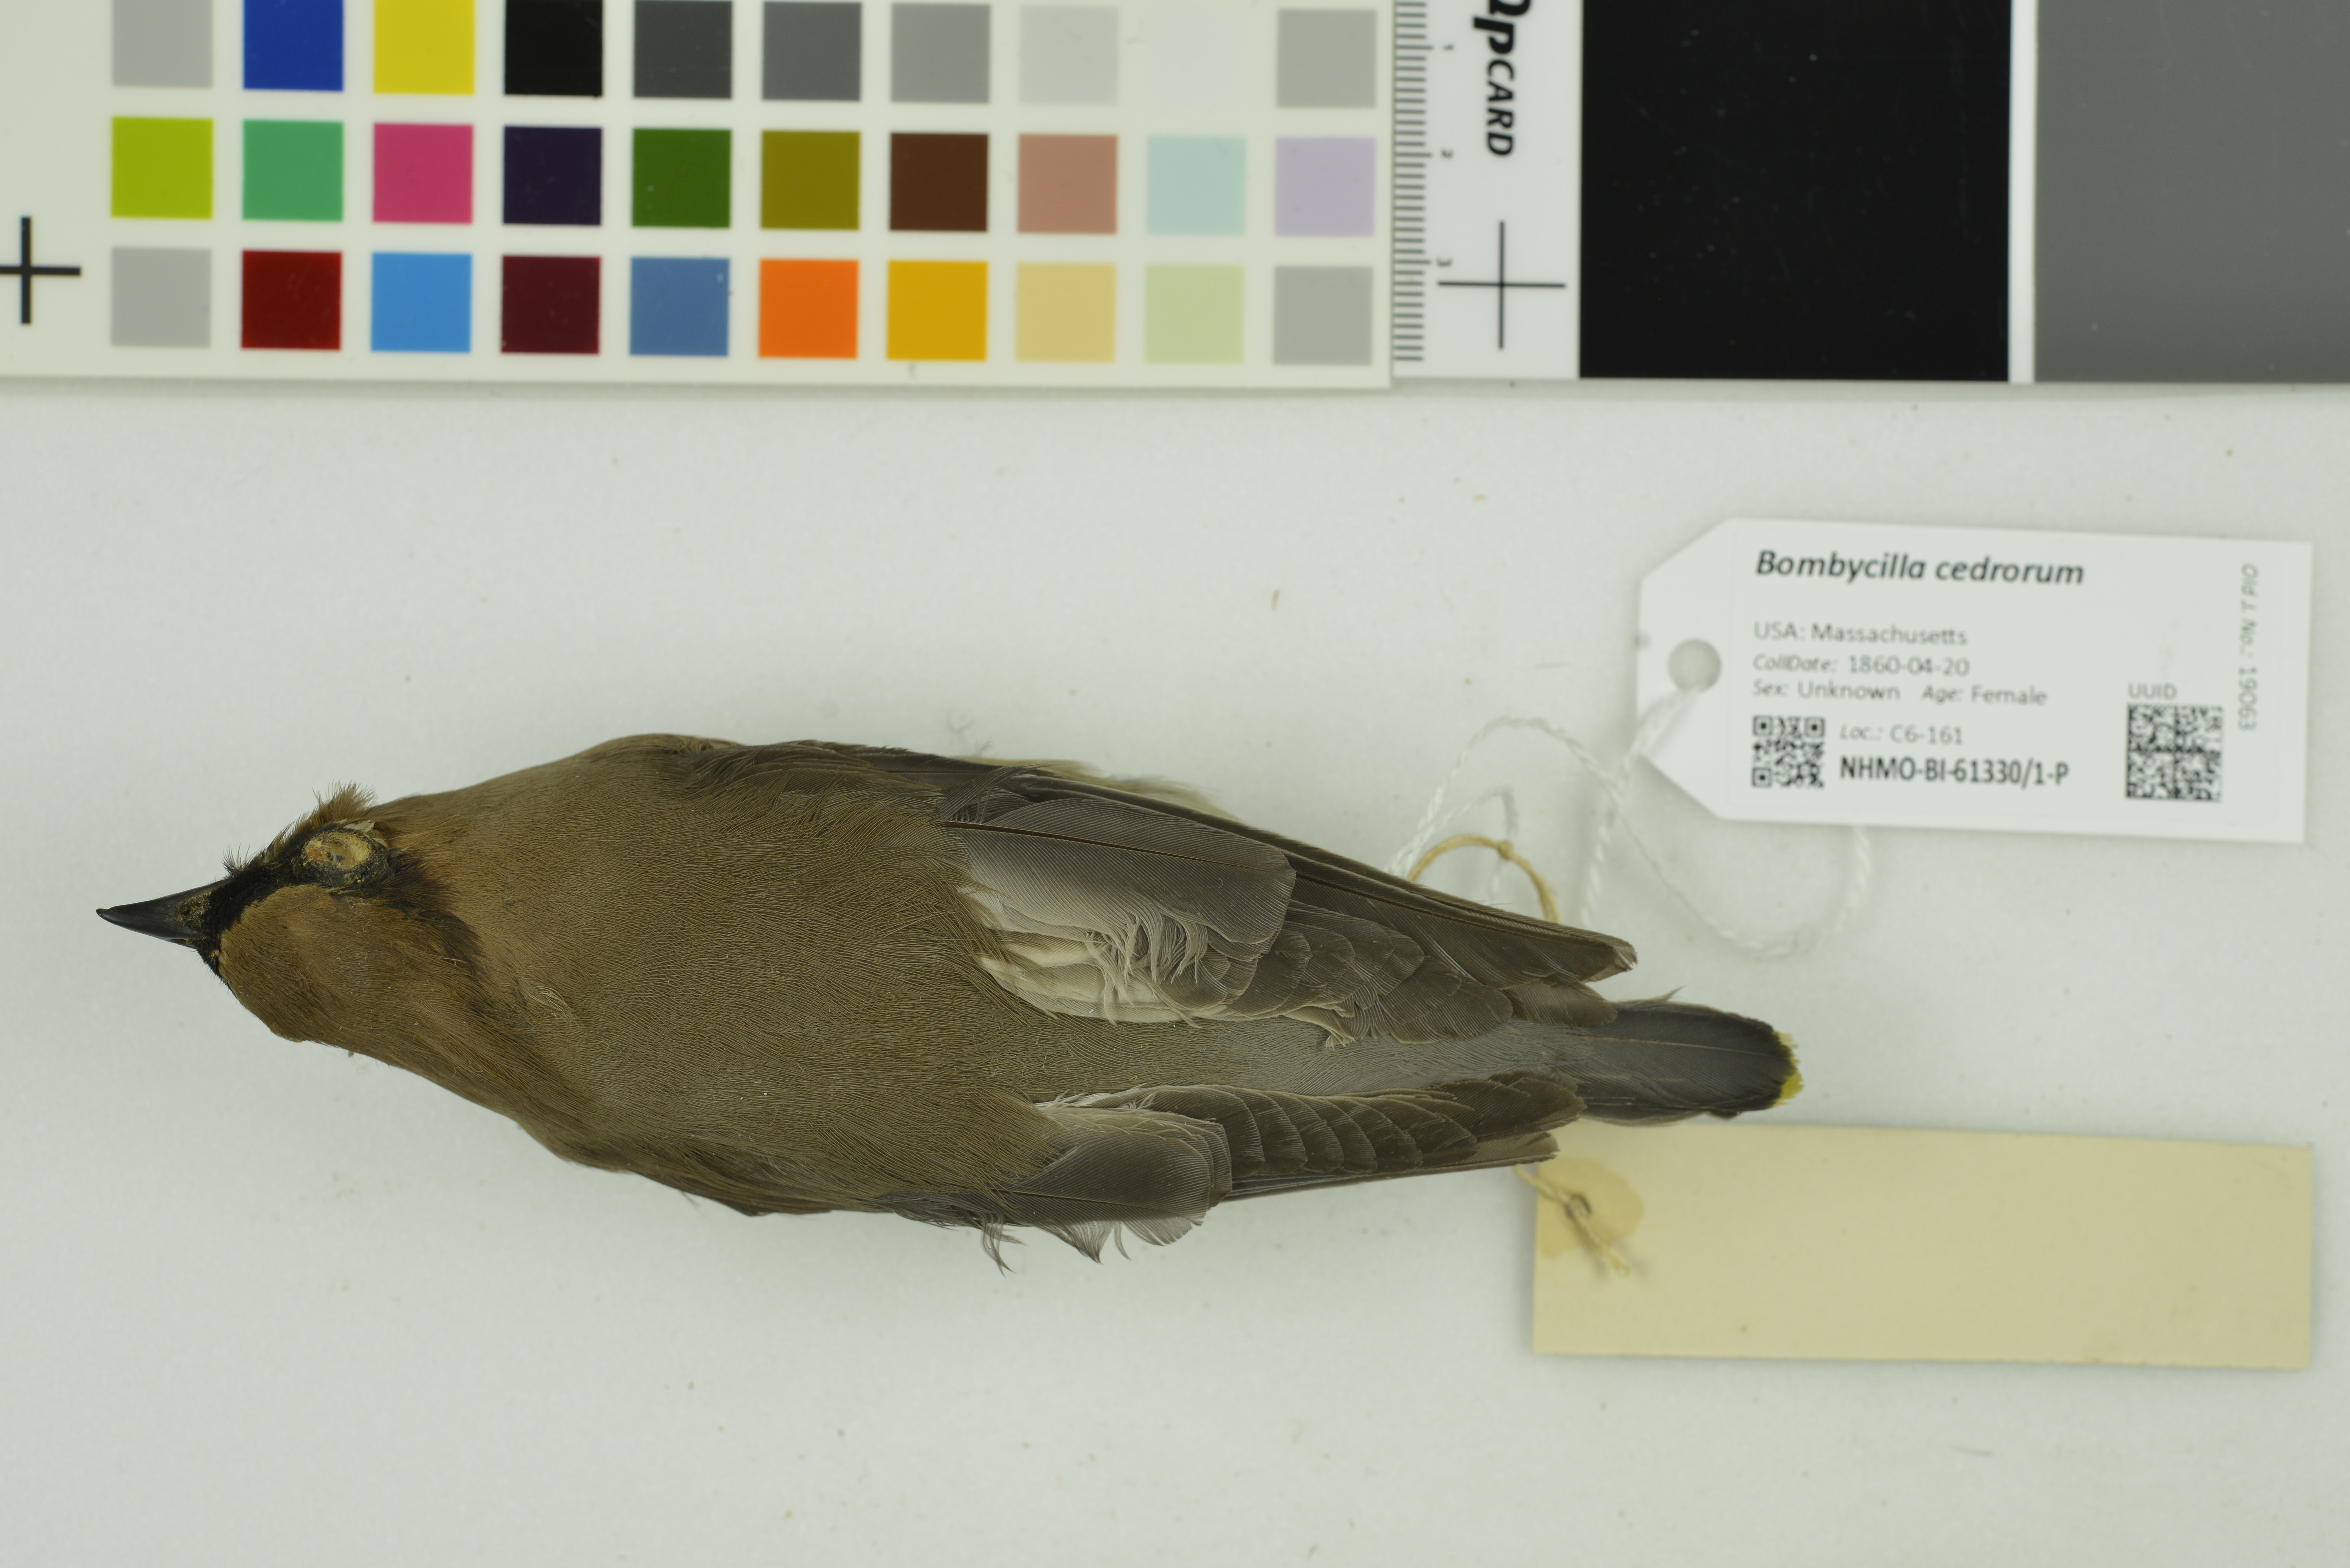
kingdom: Animalia
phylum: Chordata
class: Aves
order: Passeriformes
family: Bombycillidae
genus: Bombycilla
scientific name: Bombycilla cedrorum
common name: Cedar waxwing
